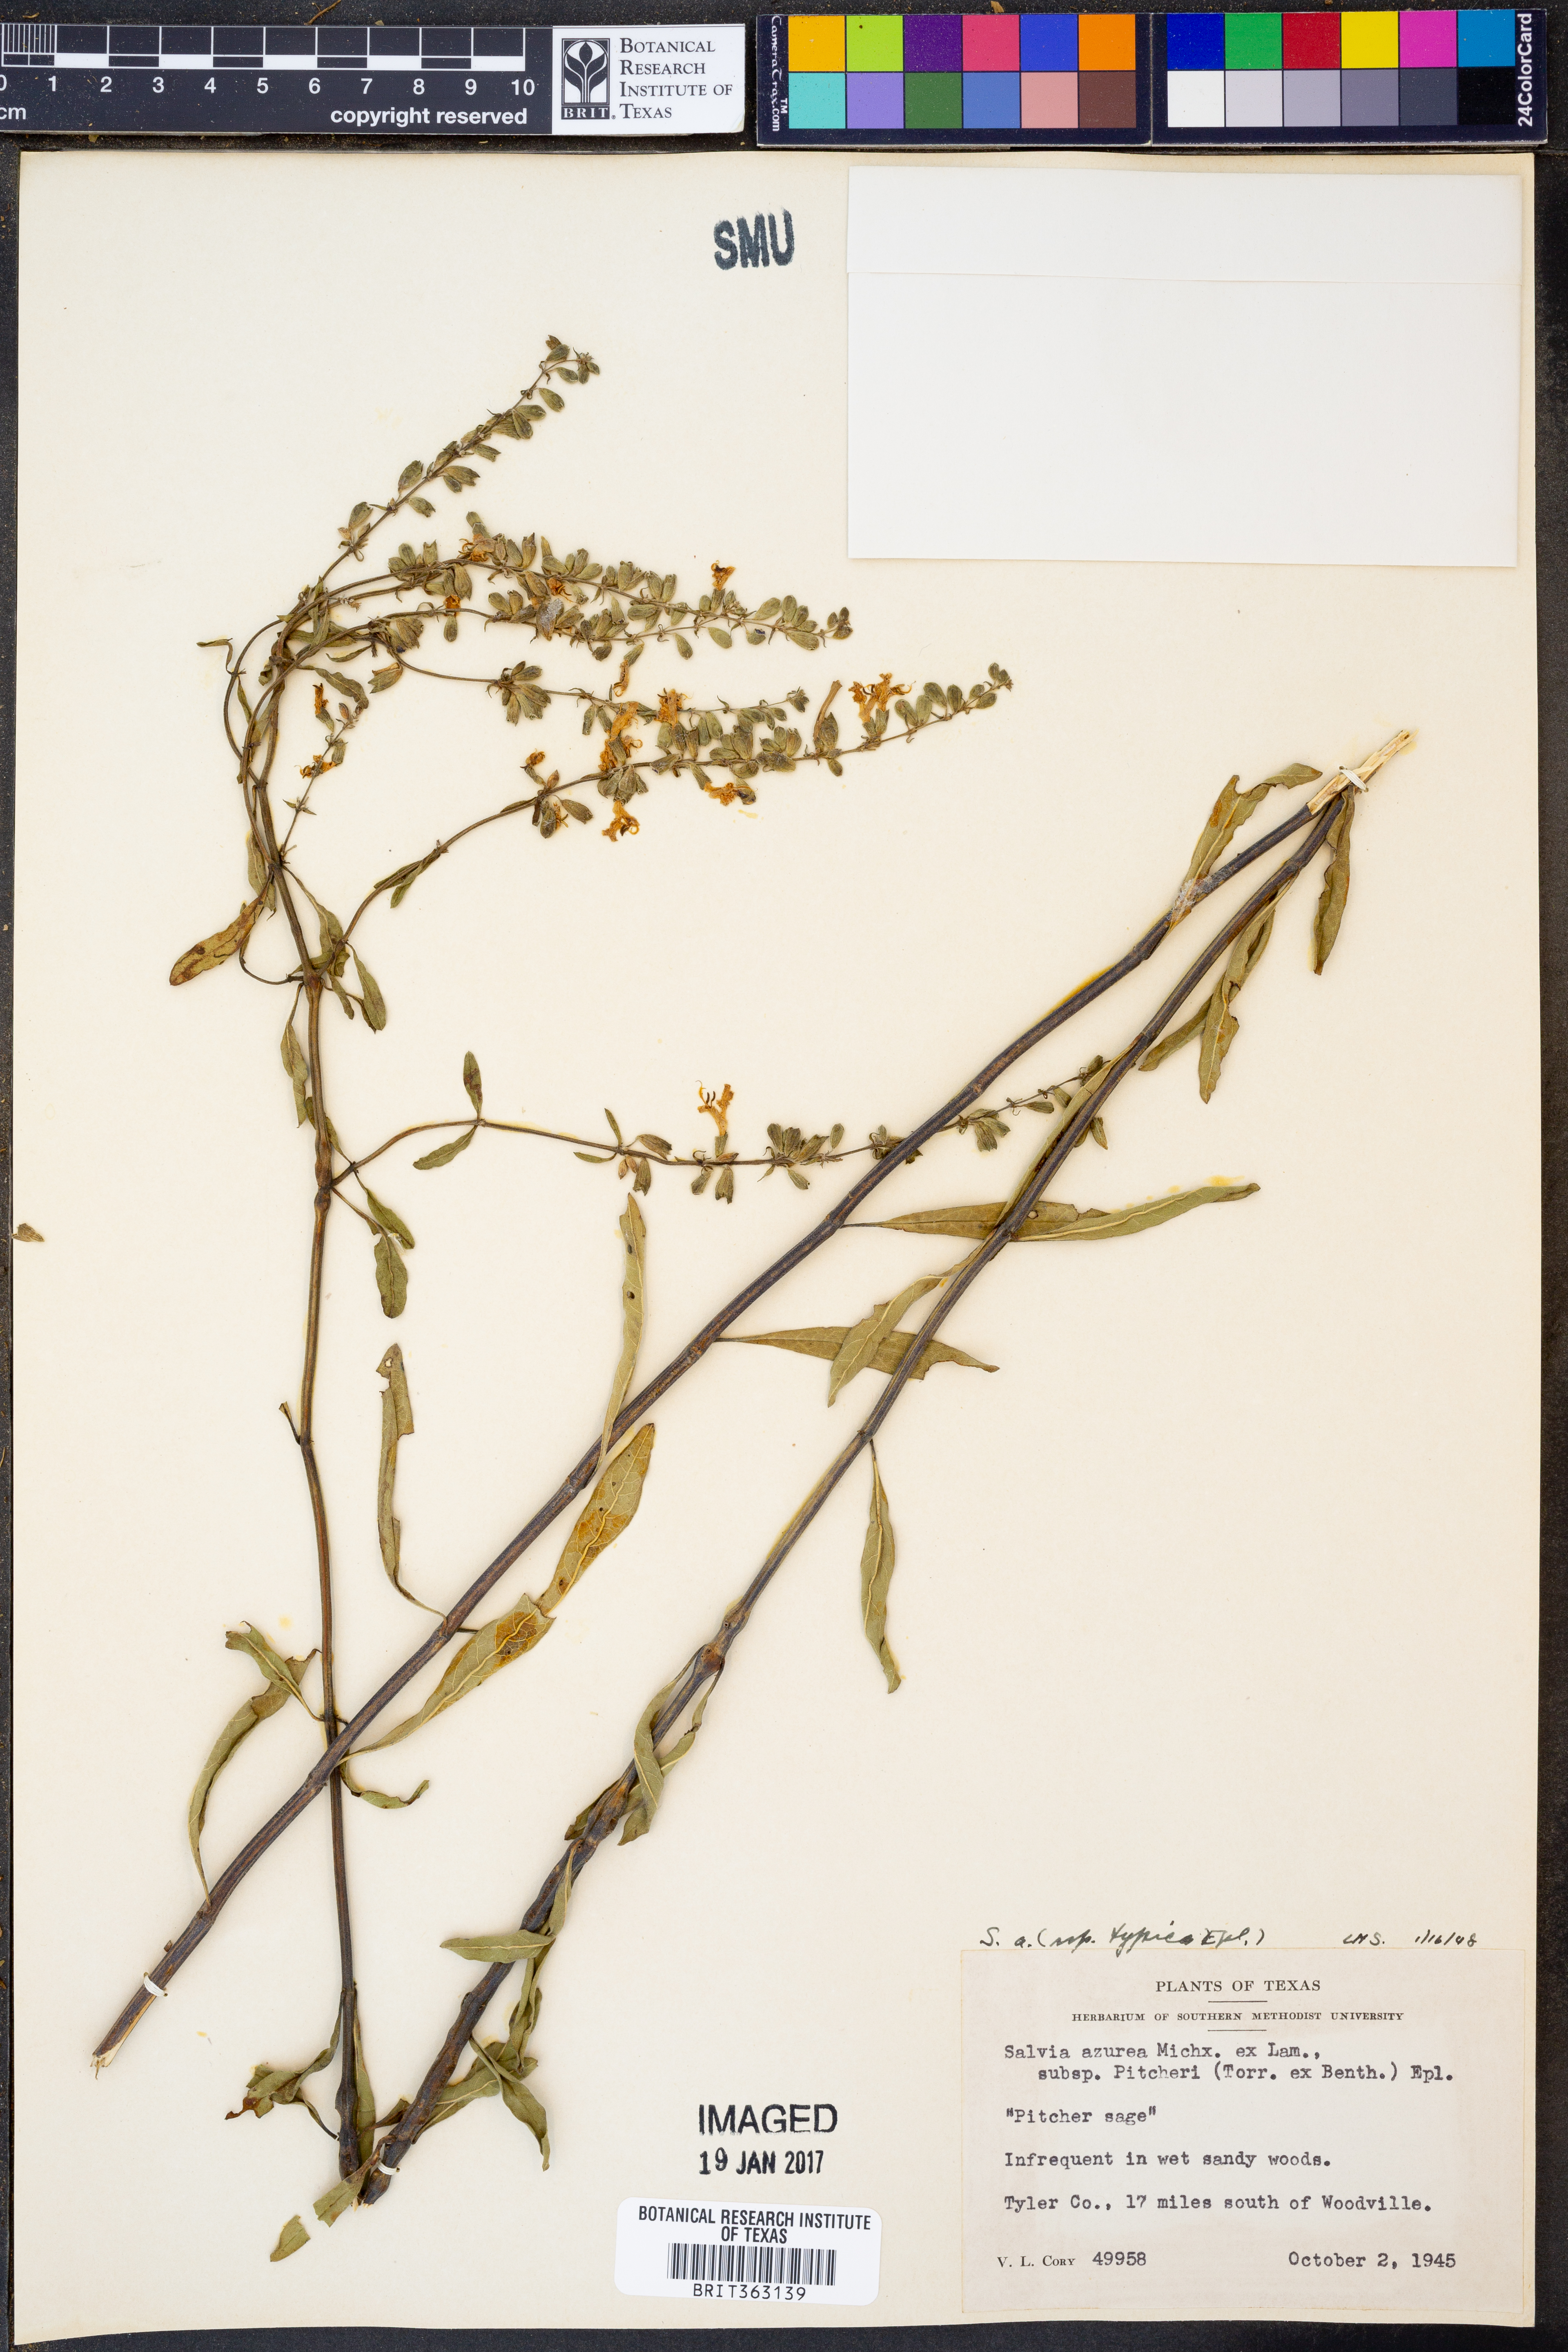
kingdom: Plantae
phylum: Tracheophyta
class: Magnoliopsida
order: Lamiales
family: Lamiaceae
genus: Salvia
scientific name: Salvia azurea
